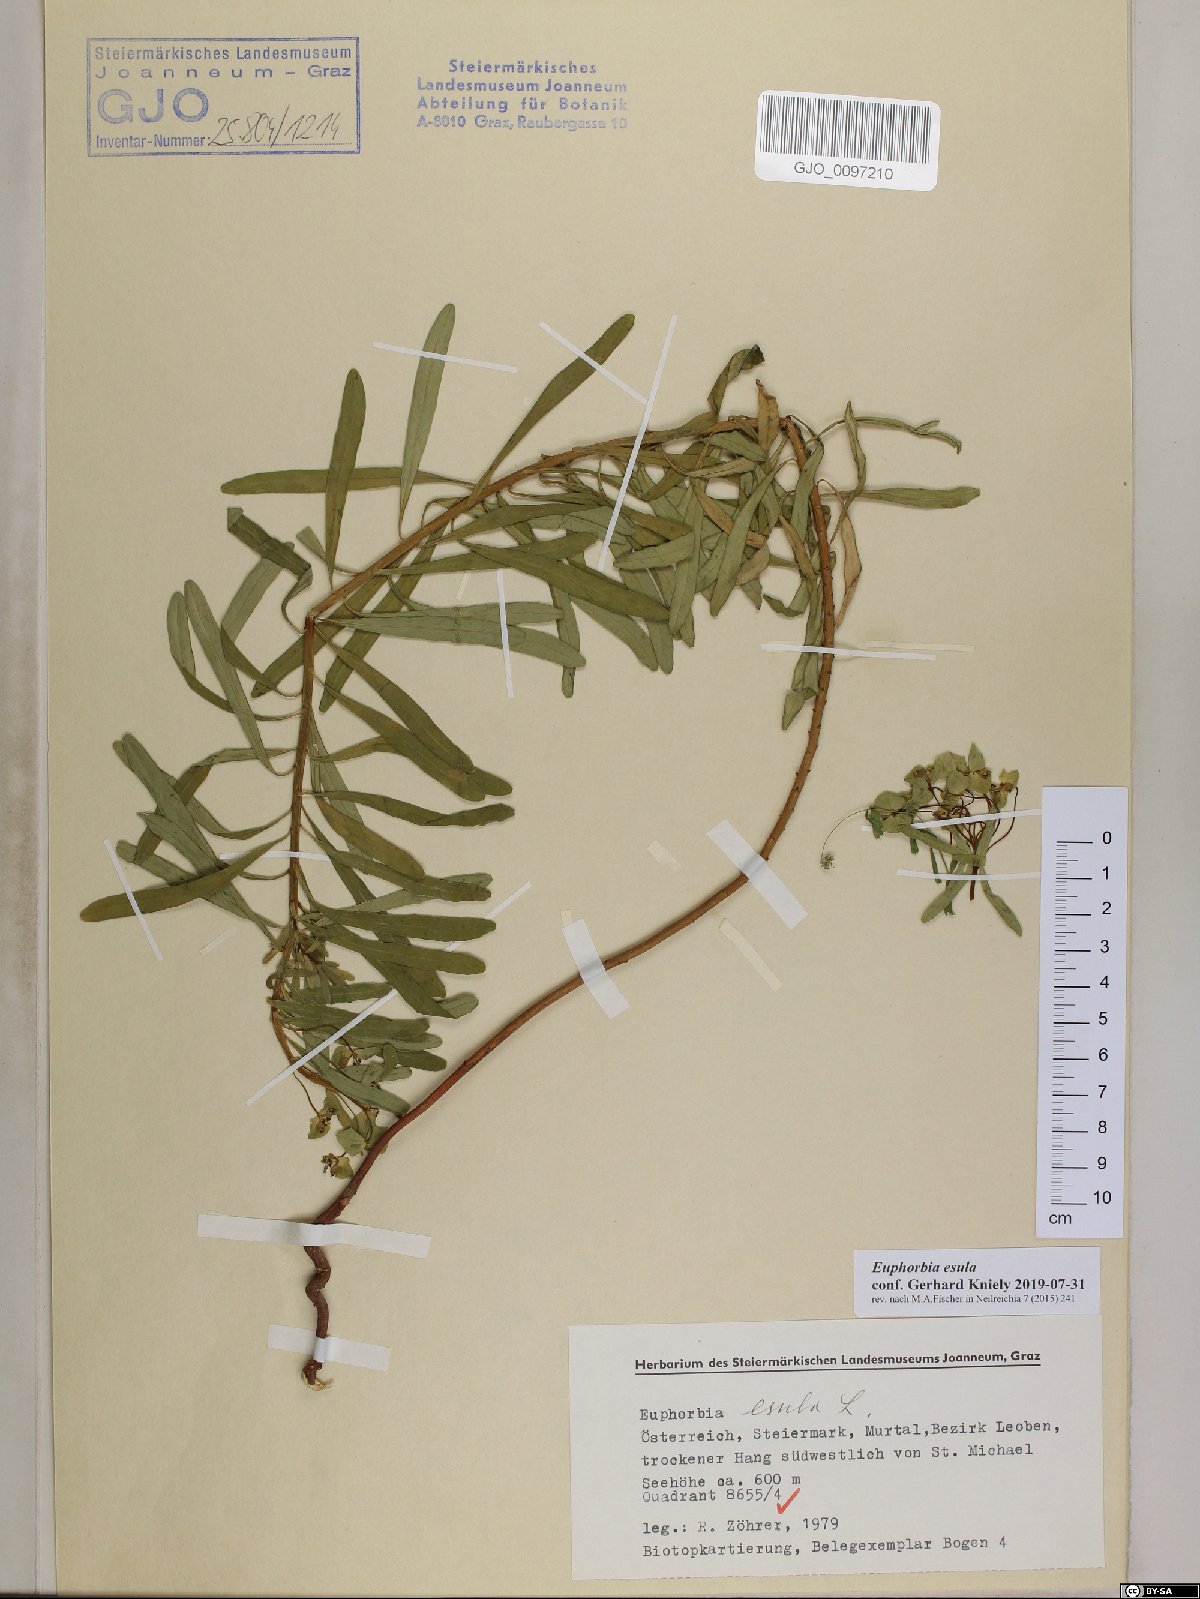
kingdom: Plantae
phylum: Tracheophyta
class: Magnoliopsida
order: Malpighiales
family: Euphorbiaceae
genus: Euphorbia
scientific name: Euphorbia esula
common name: Leafy spurge
